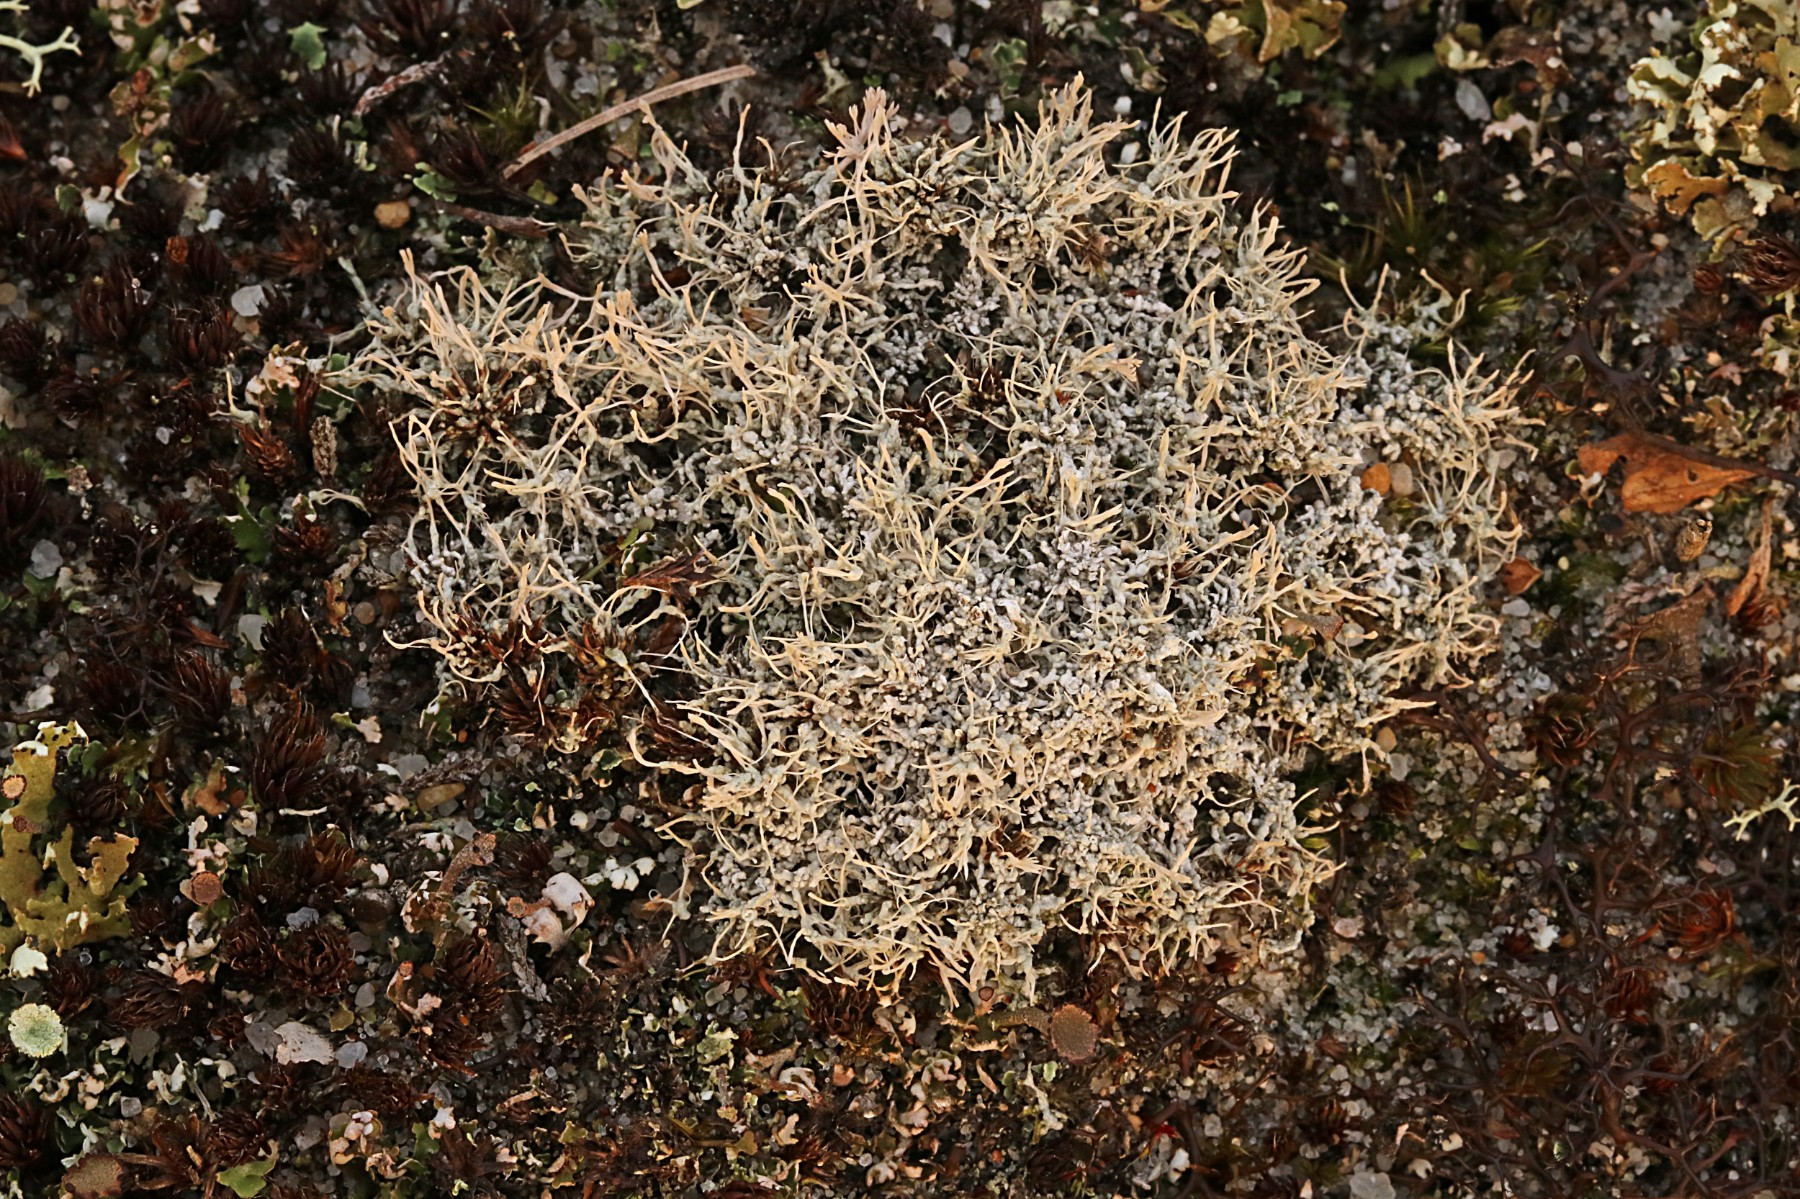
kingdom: Fungi
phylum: Ascomycota
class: Lecanoromycetes
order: Pertusariales
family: Ochrolechiaceae
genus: Ochrolechia
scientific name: Ochrolechia frigida
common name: fjeld-blegskivelav
